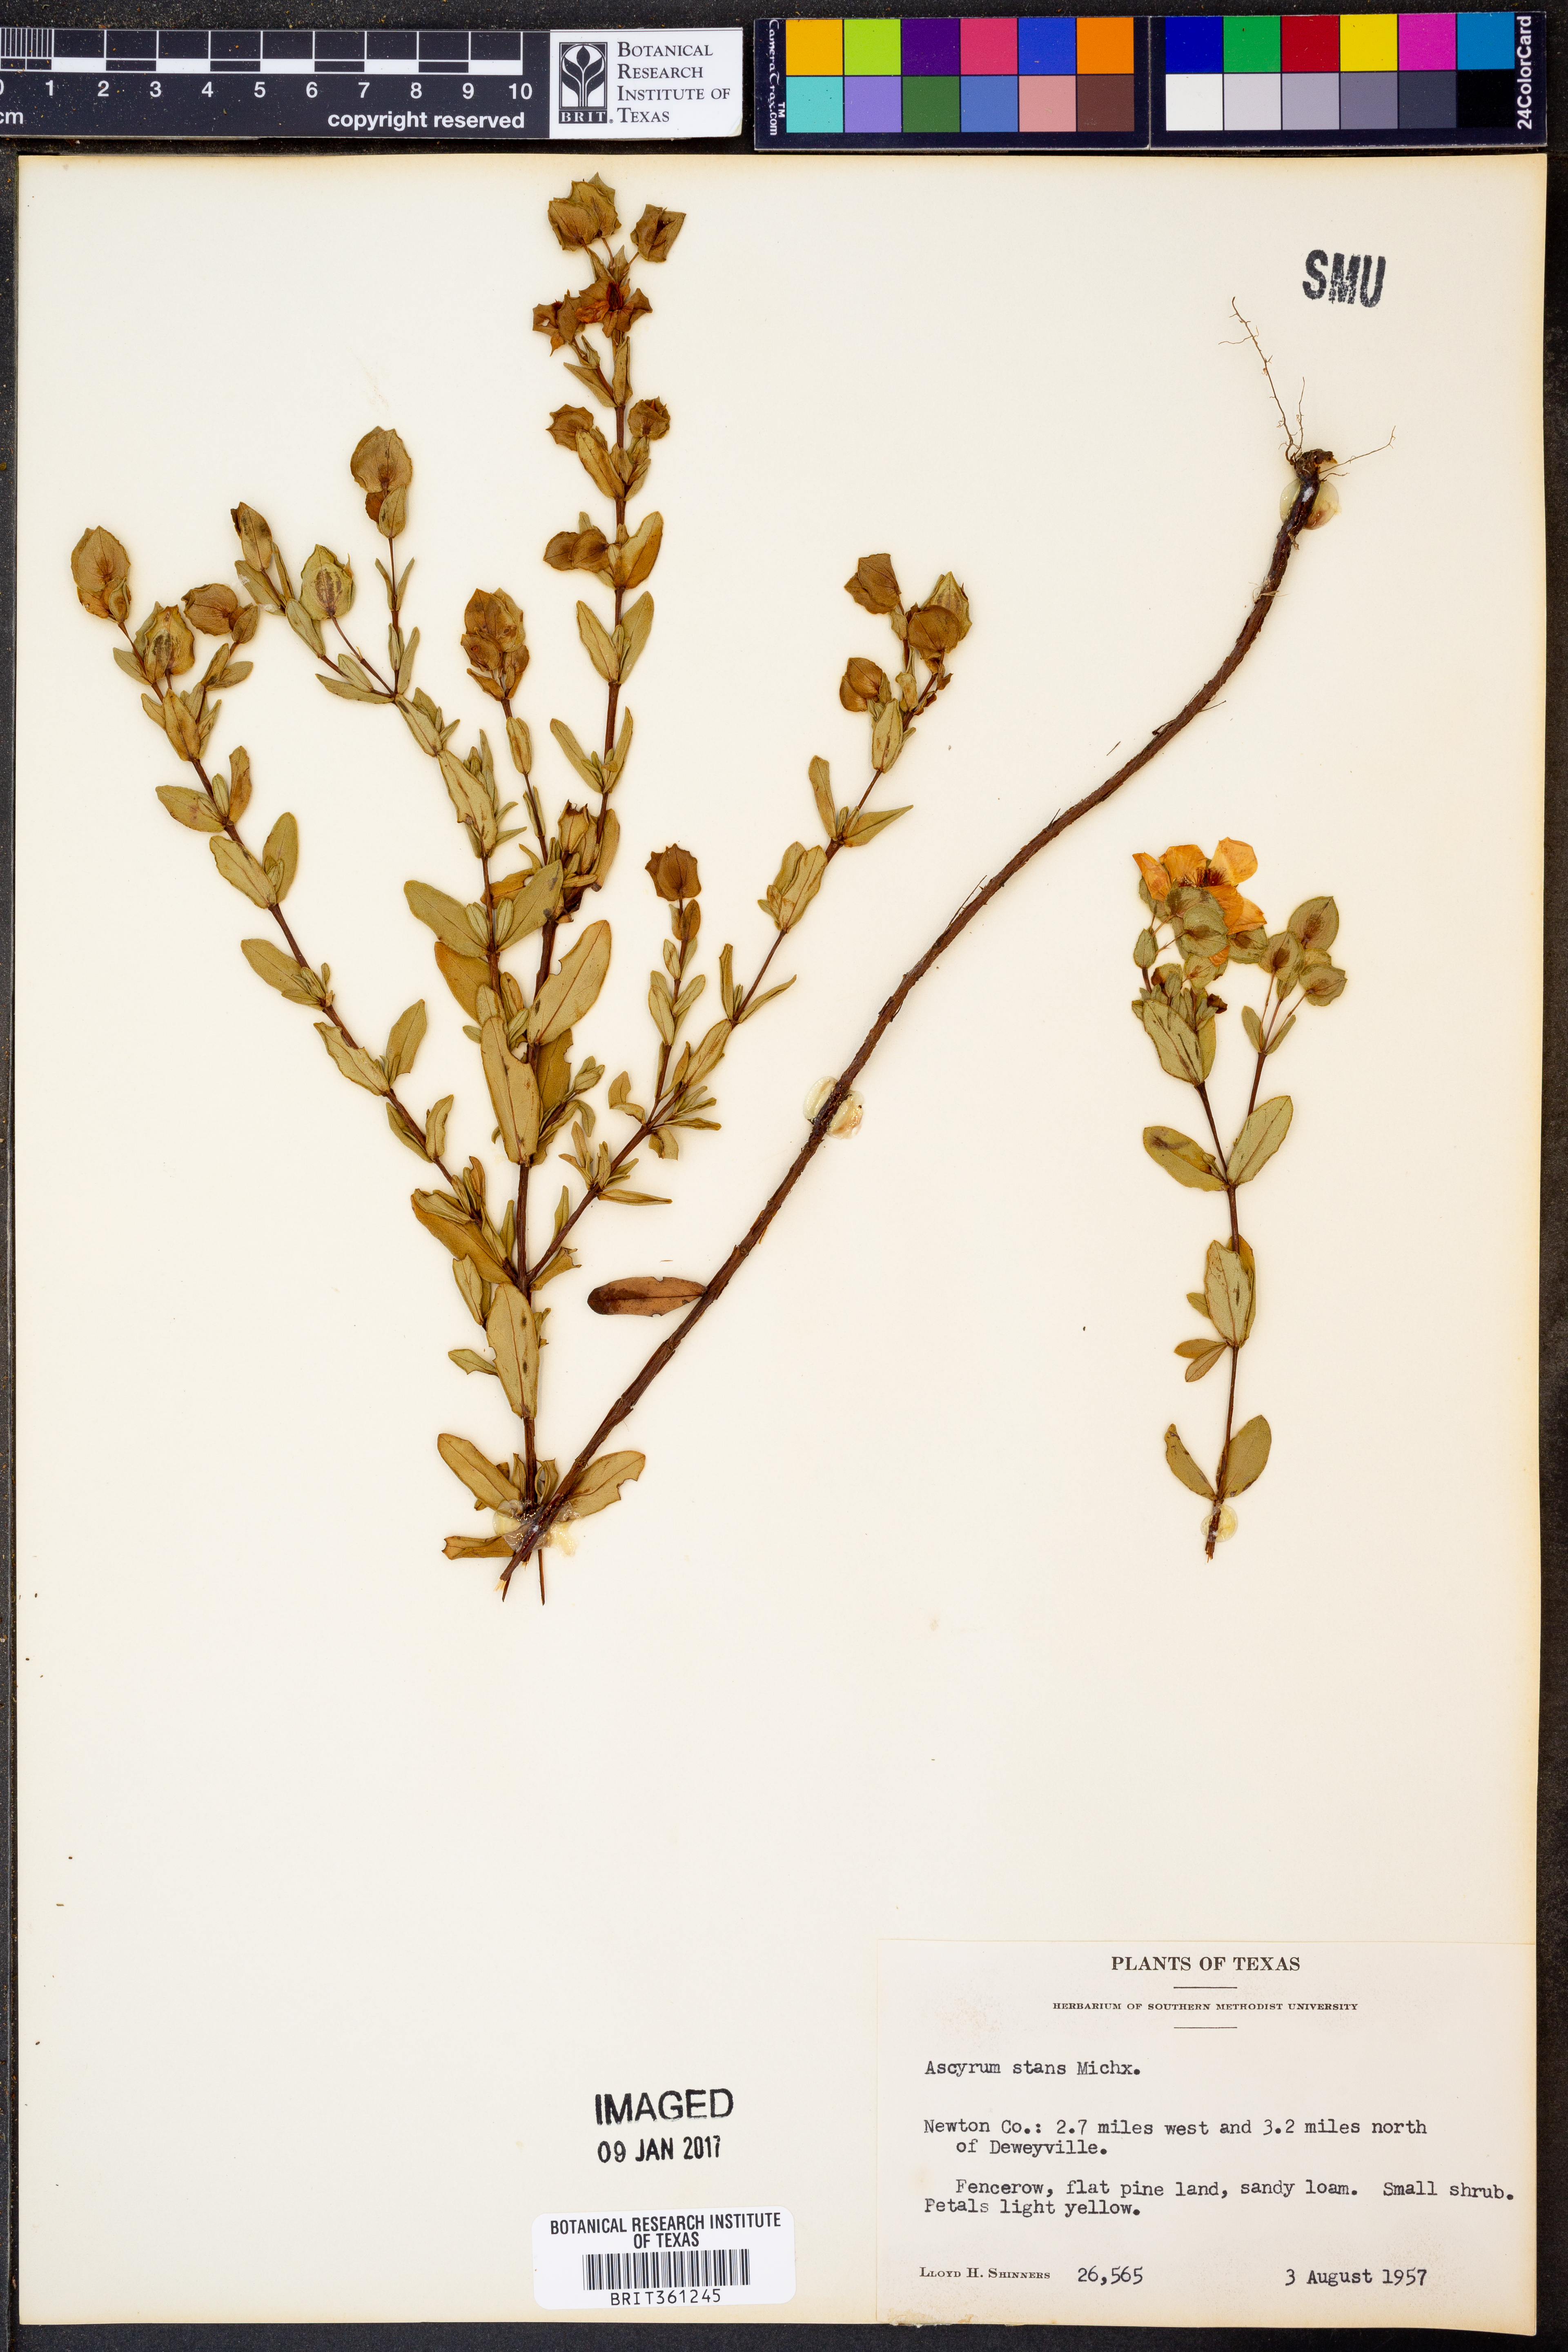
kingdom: Plantae
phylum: Tracheophyta
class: Magnoliopsida
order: Malpighiales
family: Hypericaceae
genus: Hypericum
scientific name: Hypericum crux-andreae
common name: St.-peter's-wort
